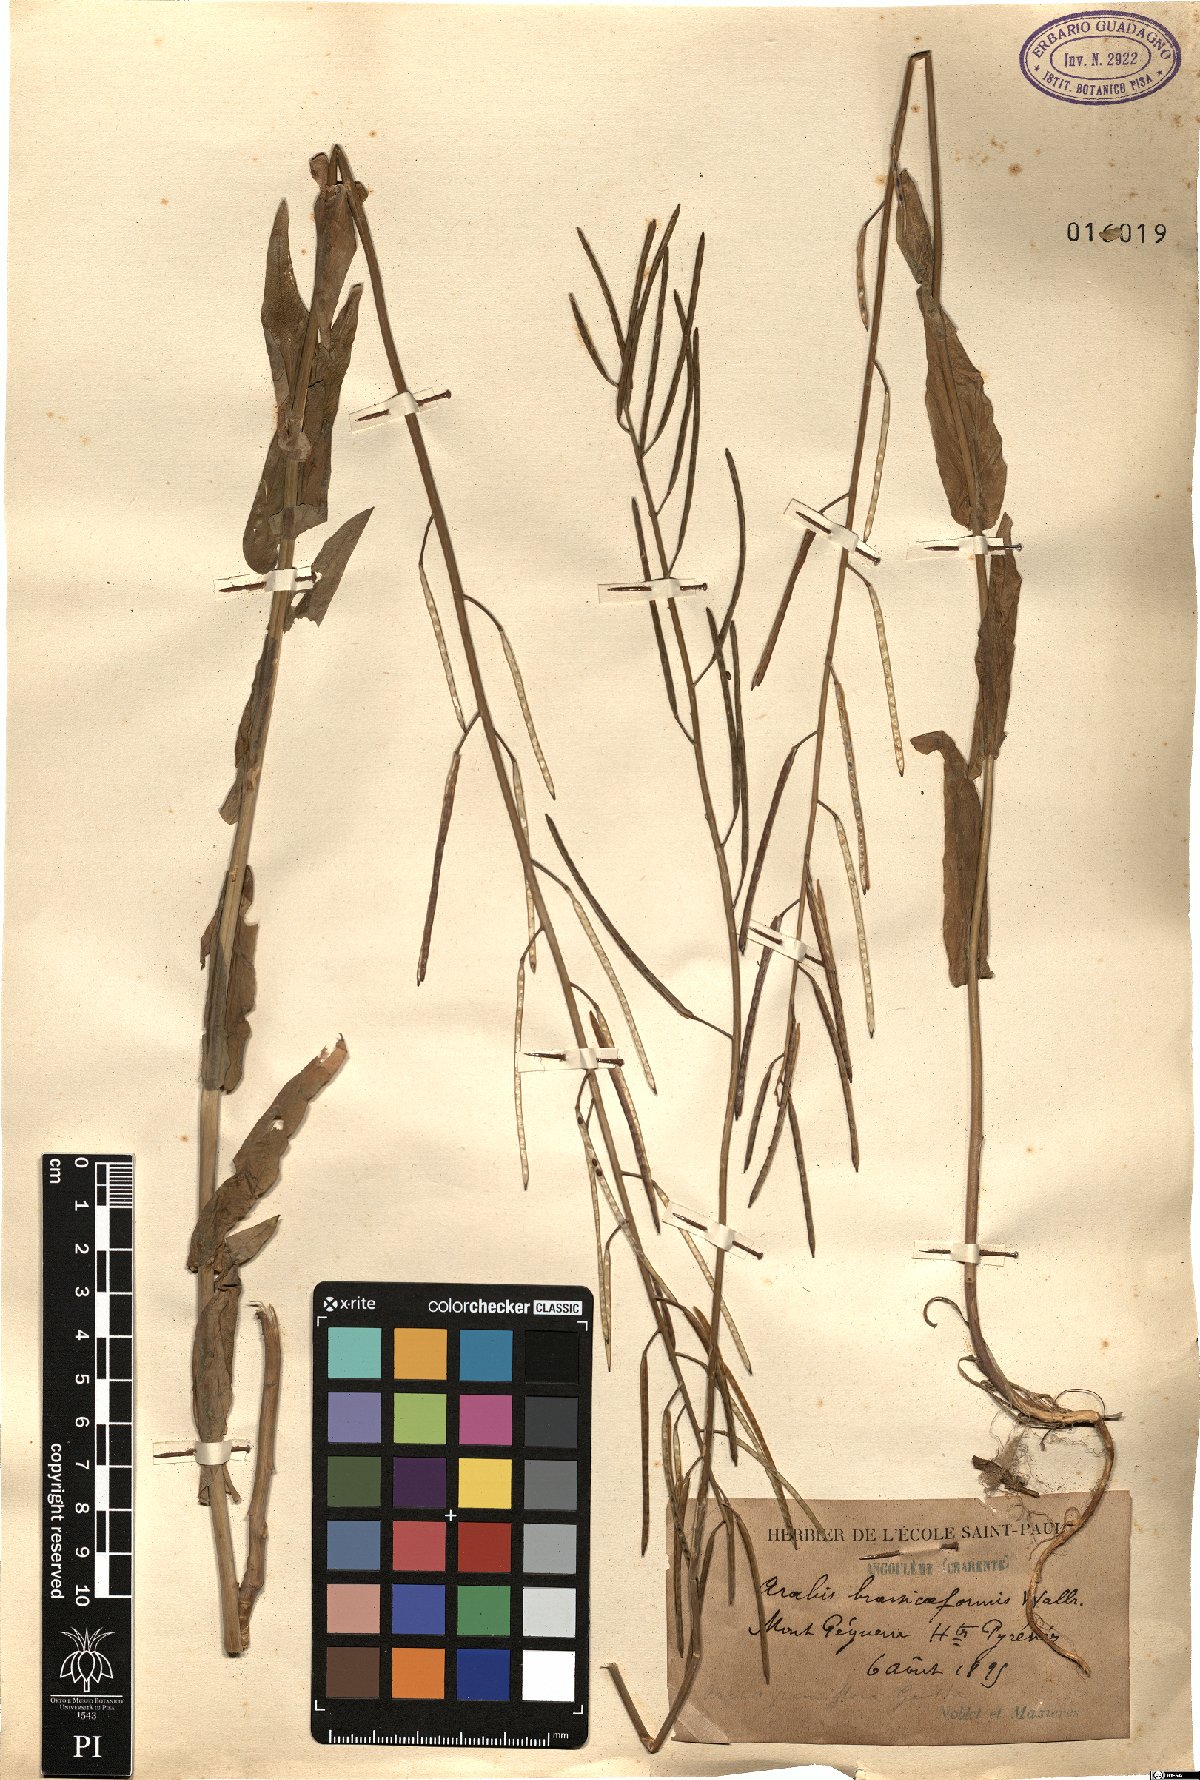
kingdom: Plantae
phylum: Tracheophyta
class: Magnoliopsida
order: Brassicales
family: Brassicaceae
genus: Fourraea
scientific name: Fourraea alpina
